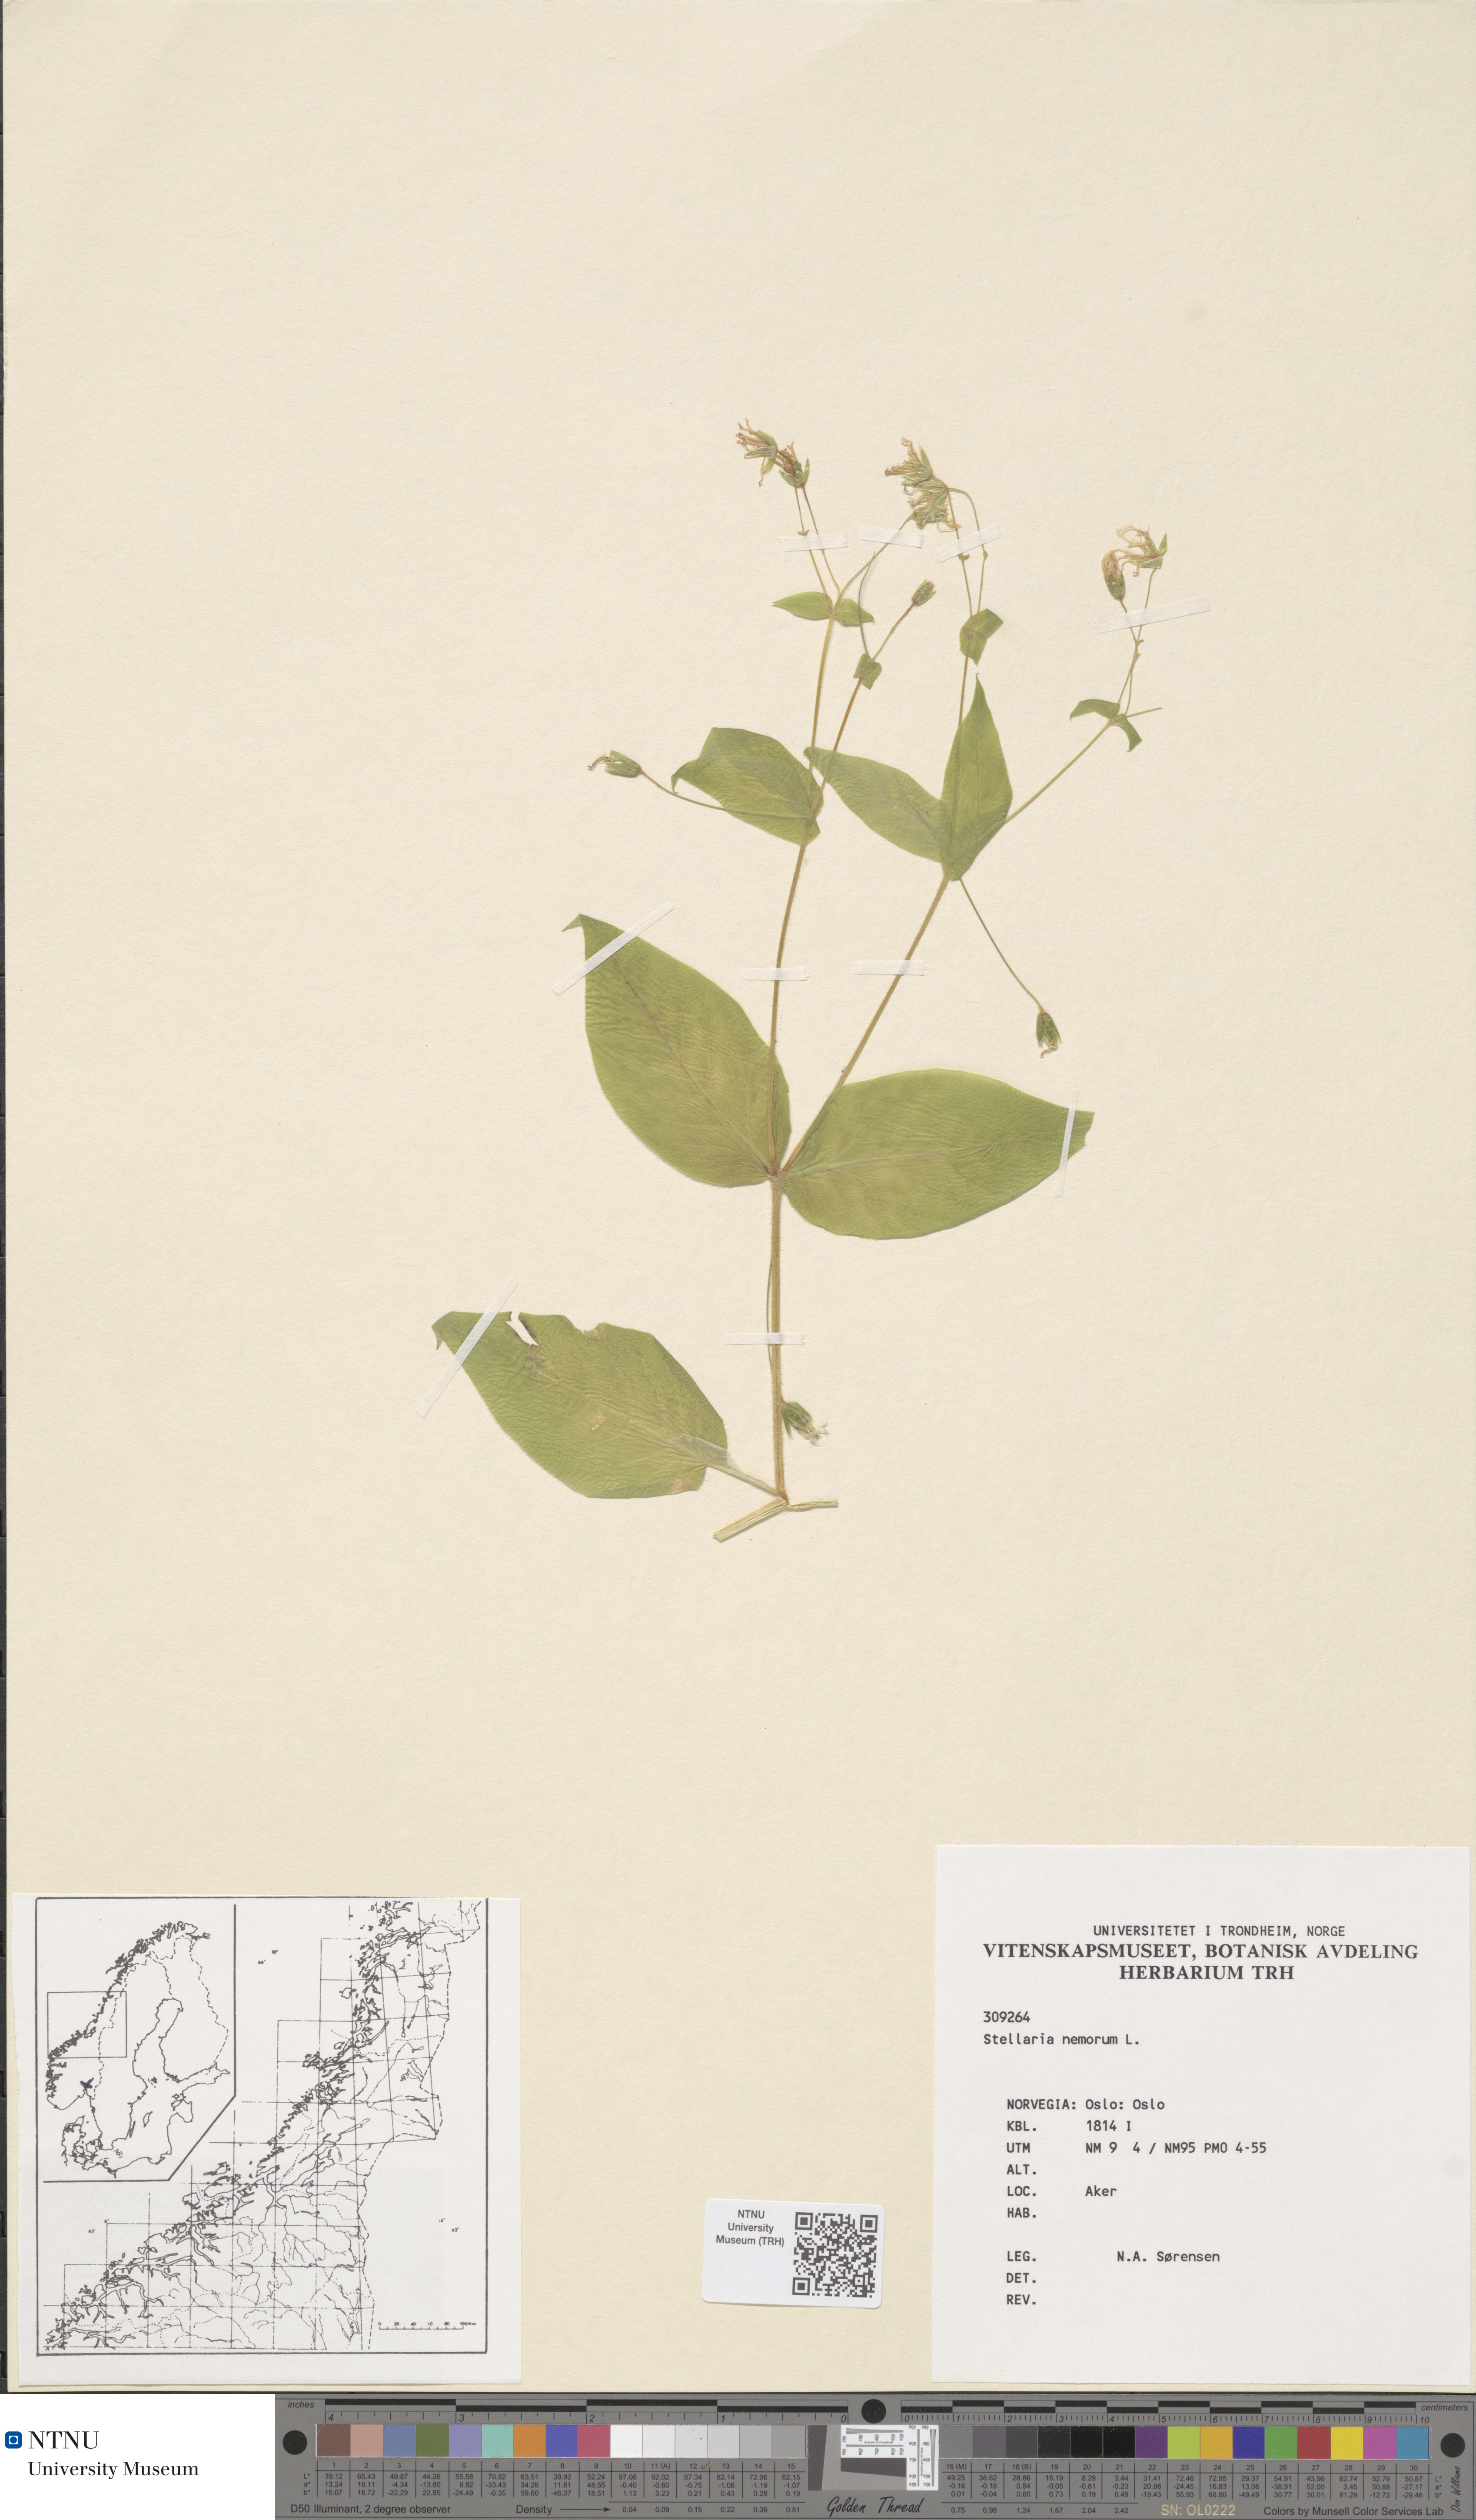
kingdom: Plantae
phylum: Tracheophyta
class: Magnoliopsida
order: Caryophyllales
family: Caryophyllaceae
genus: Stellaria
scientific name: Stellaria nemorum
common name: Wood stitchwort
